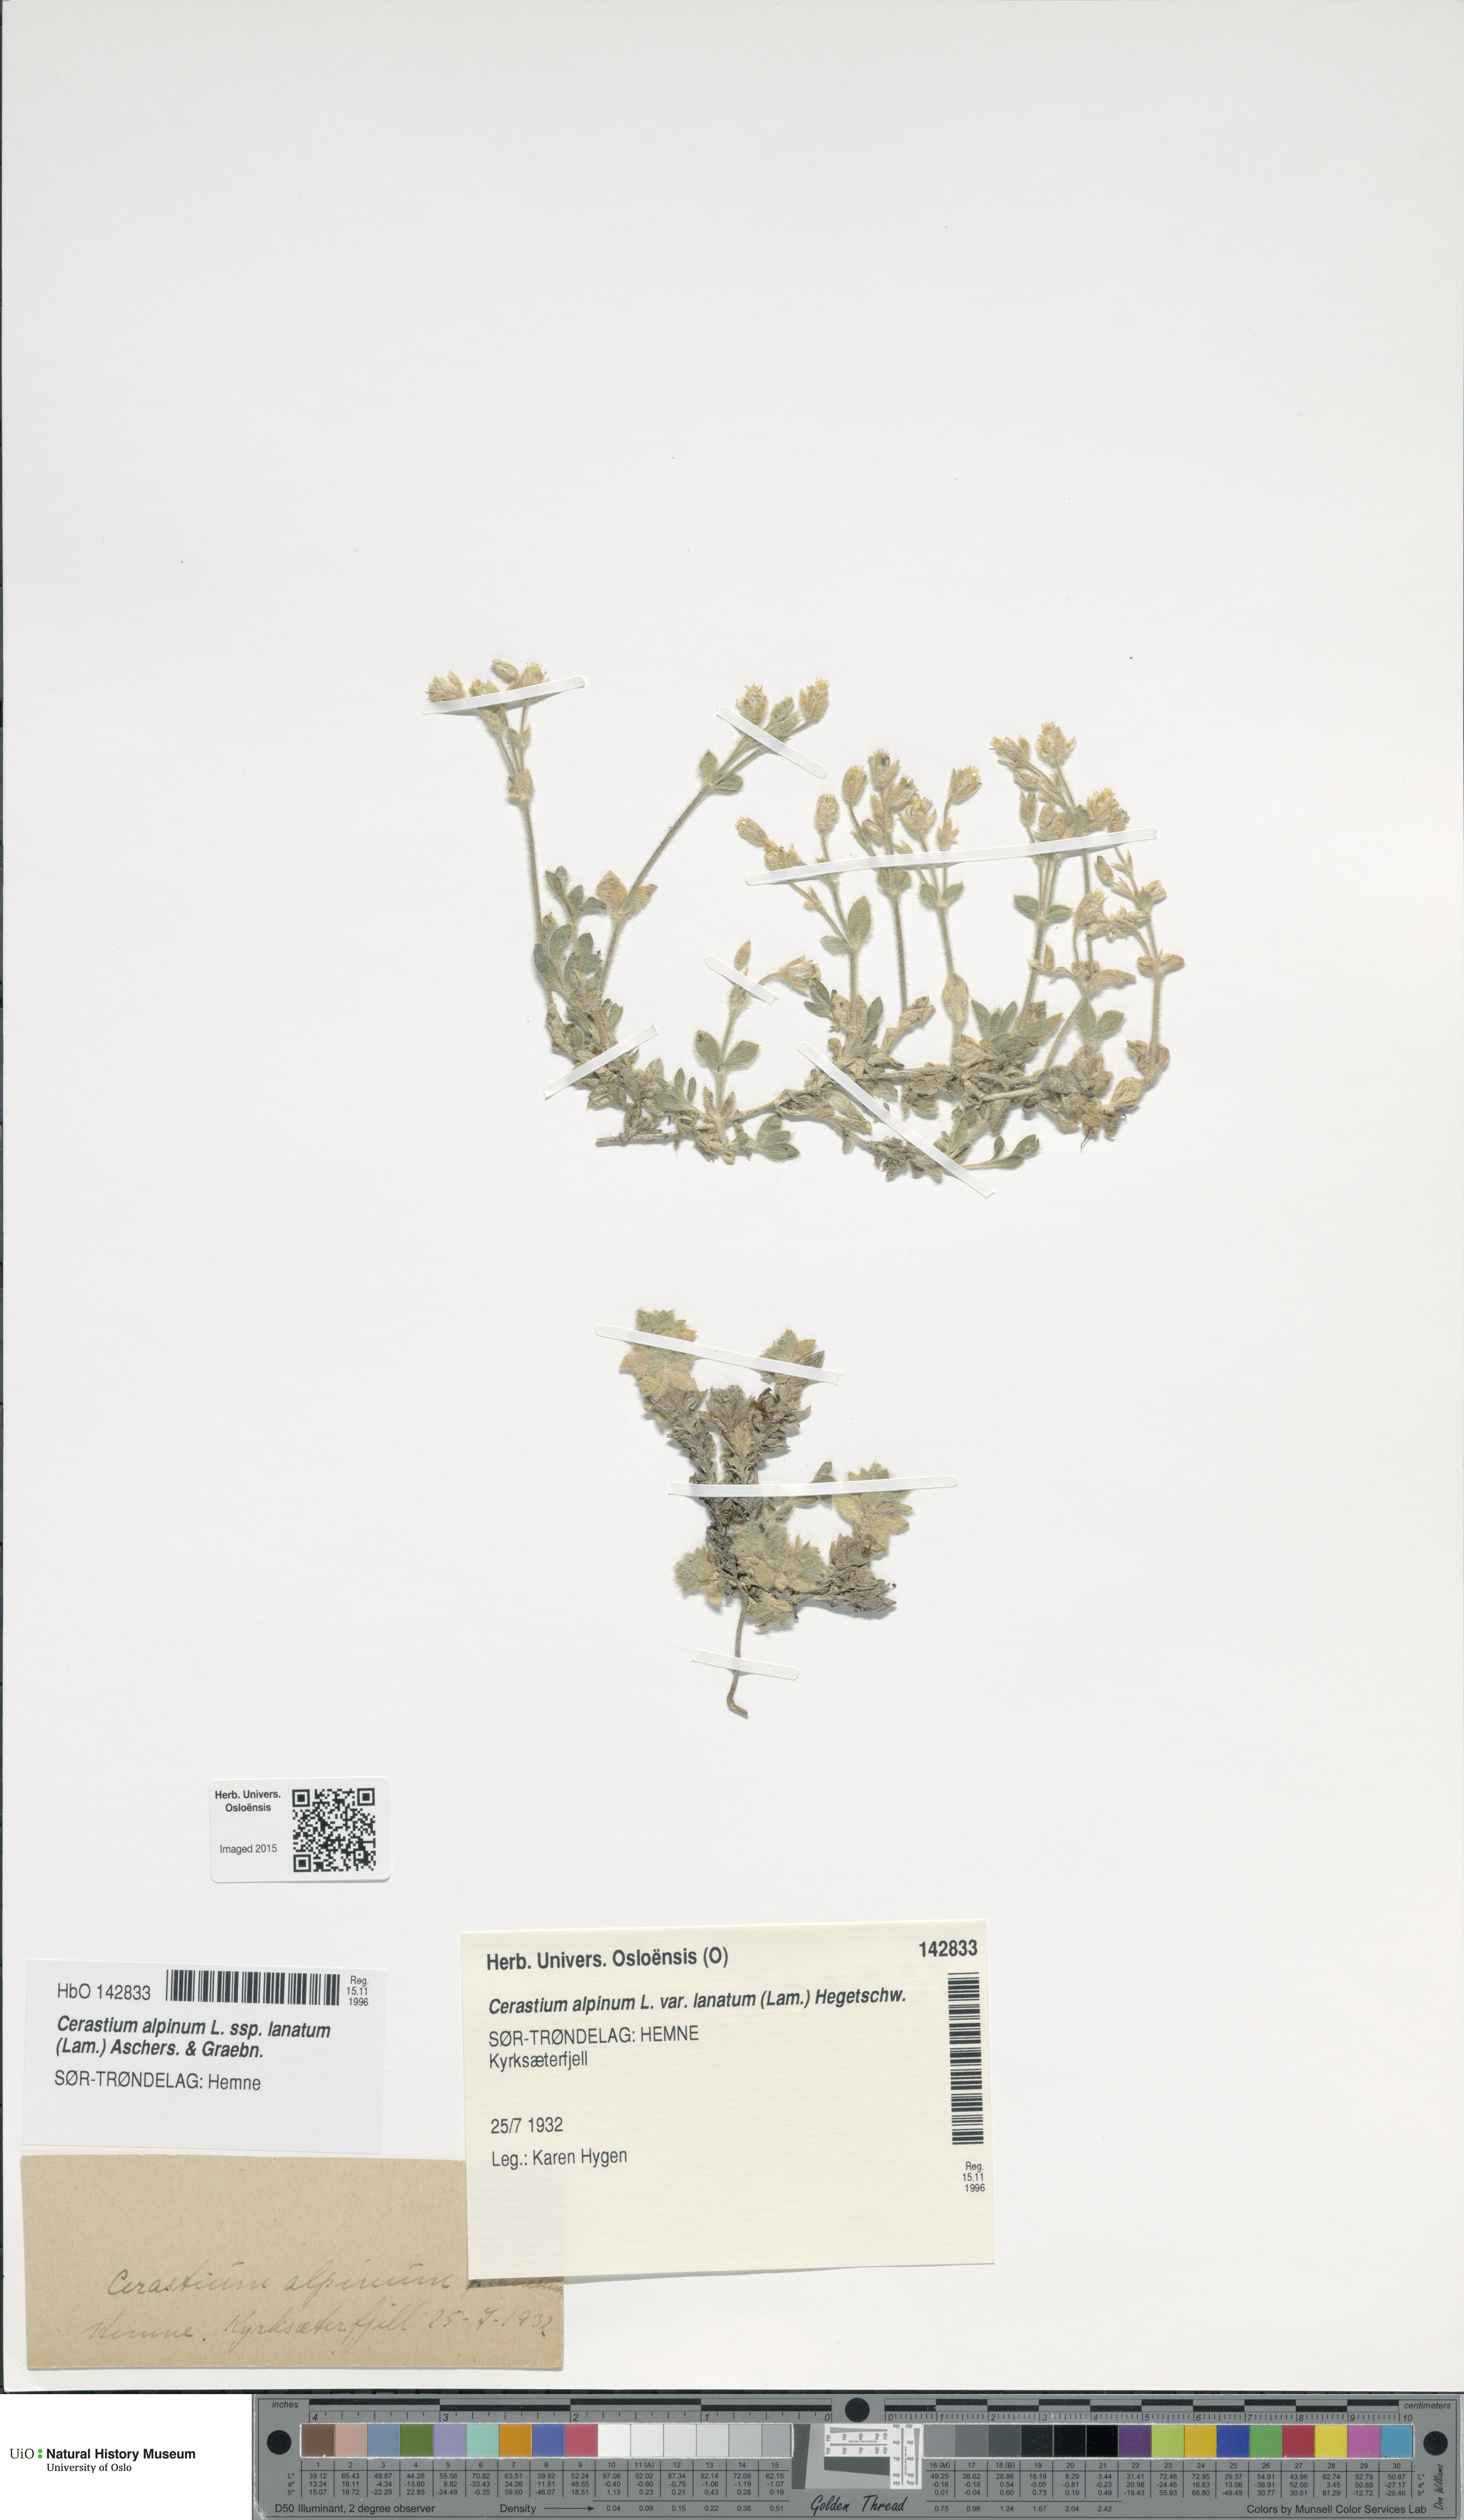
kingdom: Plantae
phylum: Tracheophyta
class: Magnoliopsida
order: Caryophyllales
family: Caryophyllaceae
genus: Cerastium
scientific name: Cerastium alpinum
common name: Alpine mouse-ear
